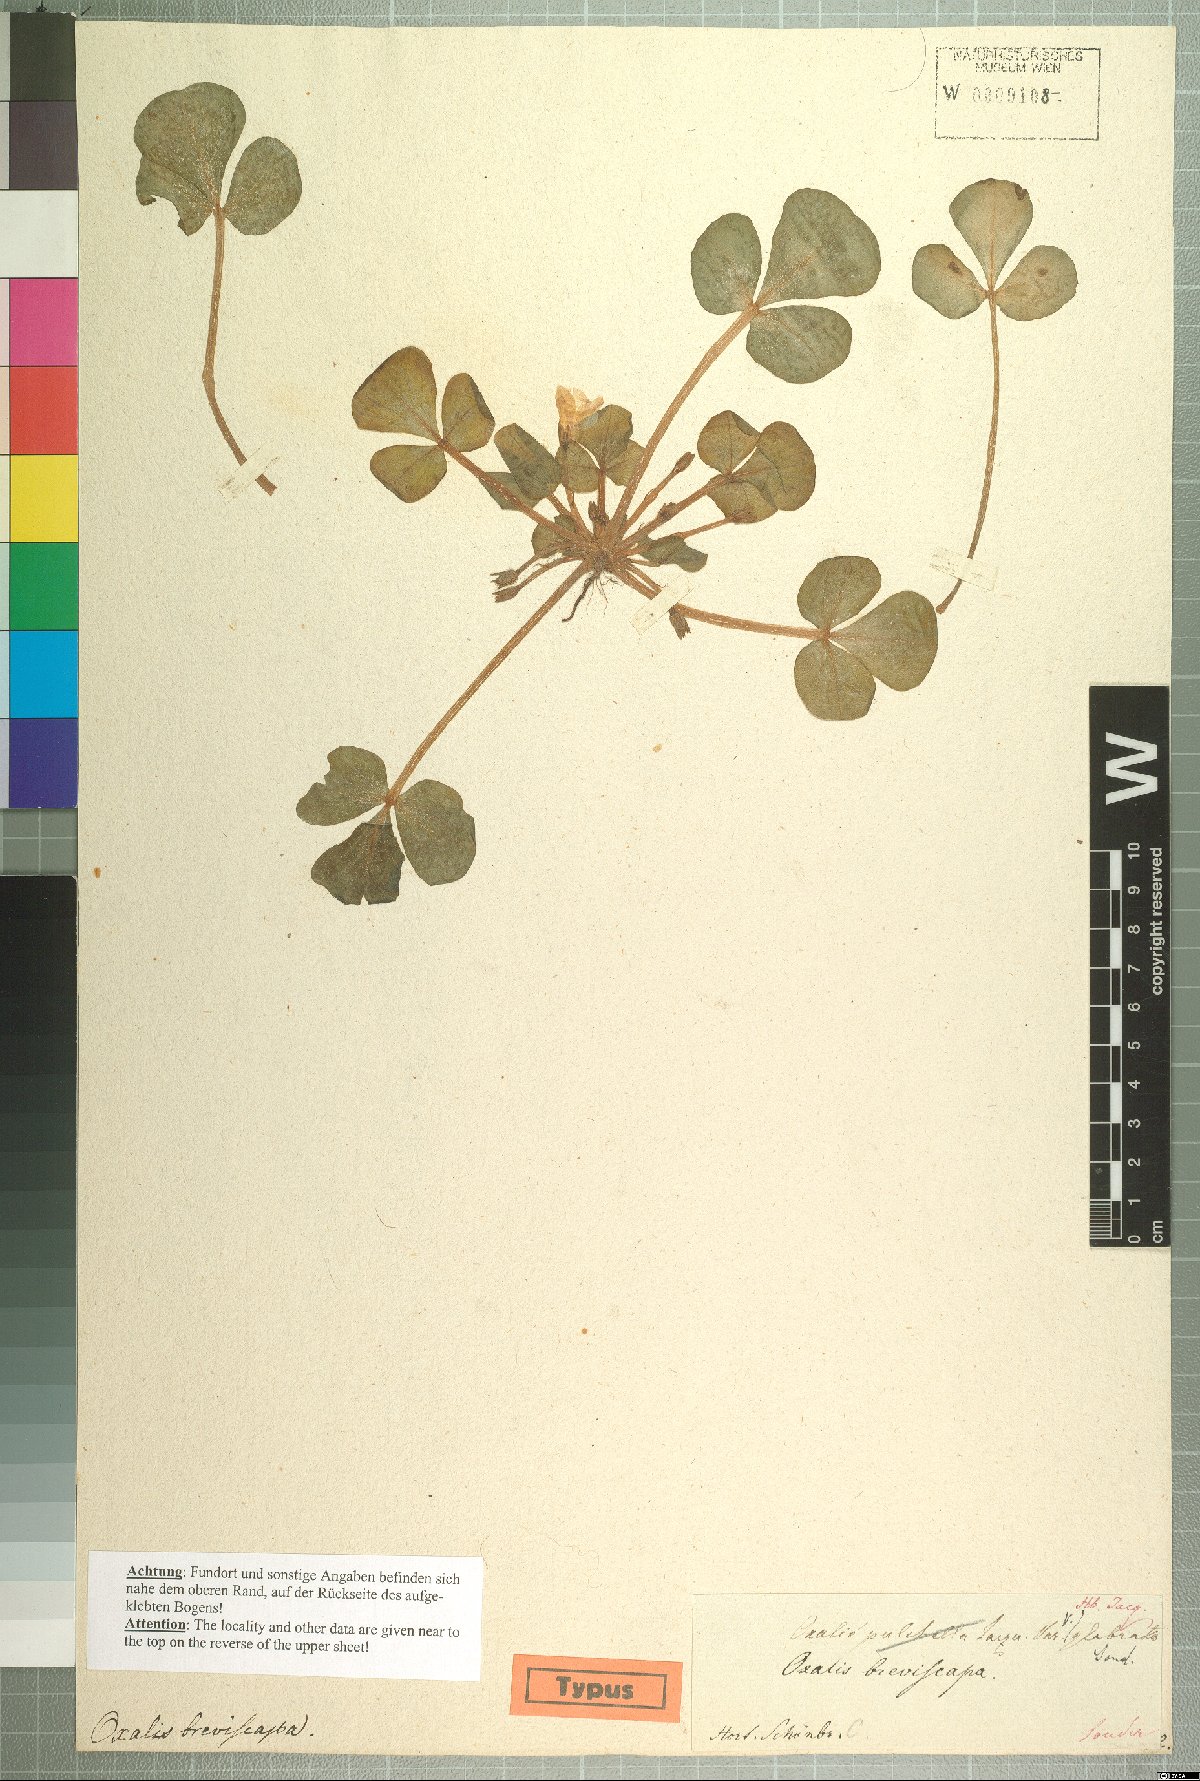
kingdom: Plantae
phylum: Tracheophyta
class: Magnoliopsida
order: Oxalidales
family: Oxalidaceae
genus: Oxalis
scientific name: Oxalis purpurea
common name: Purple woodsorrel
